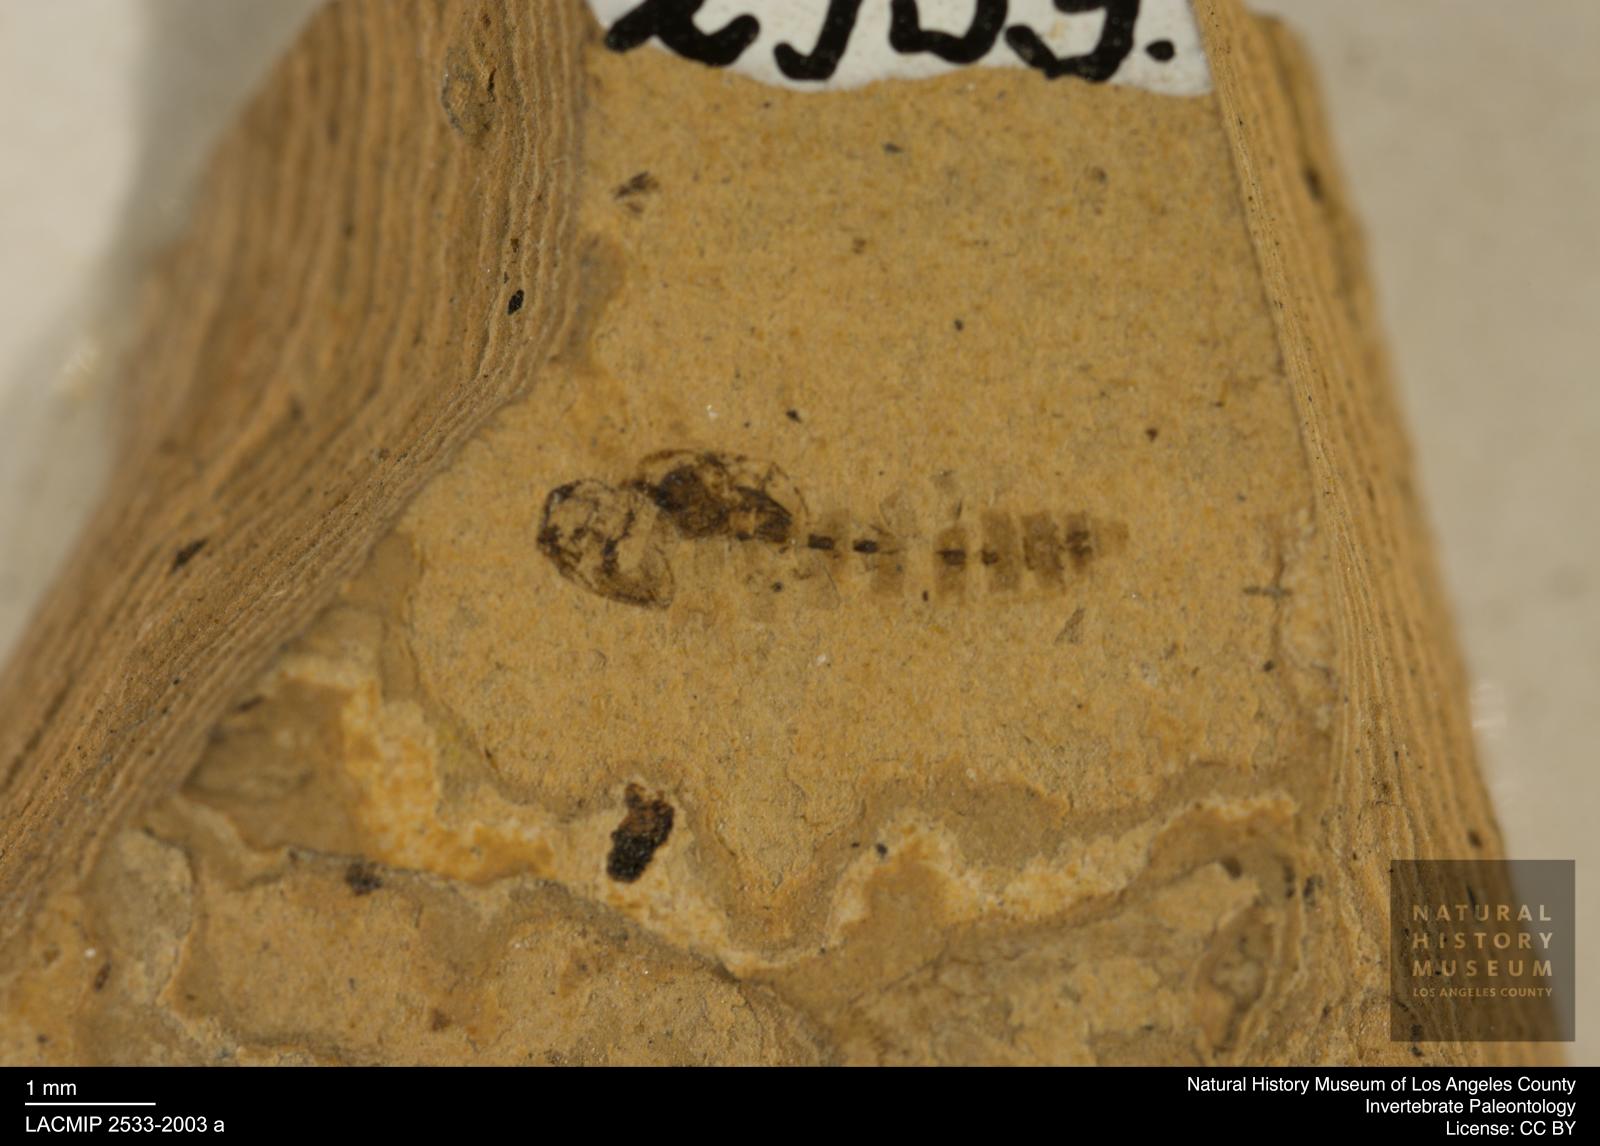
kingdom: Animalia
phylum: Arthropoda
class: Insecta
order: Diptera
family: Ceratopogonidae
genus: Ceratopogon
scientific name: Ceratopogon
